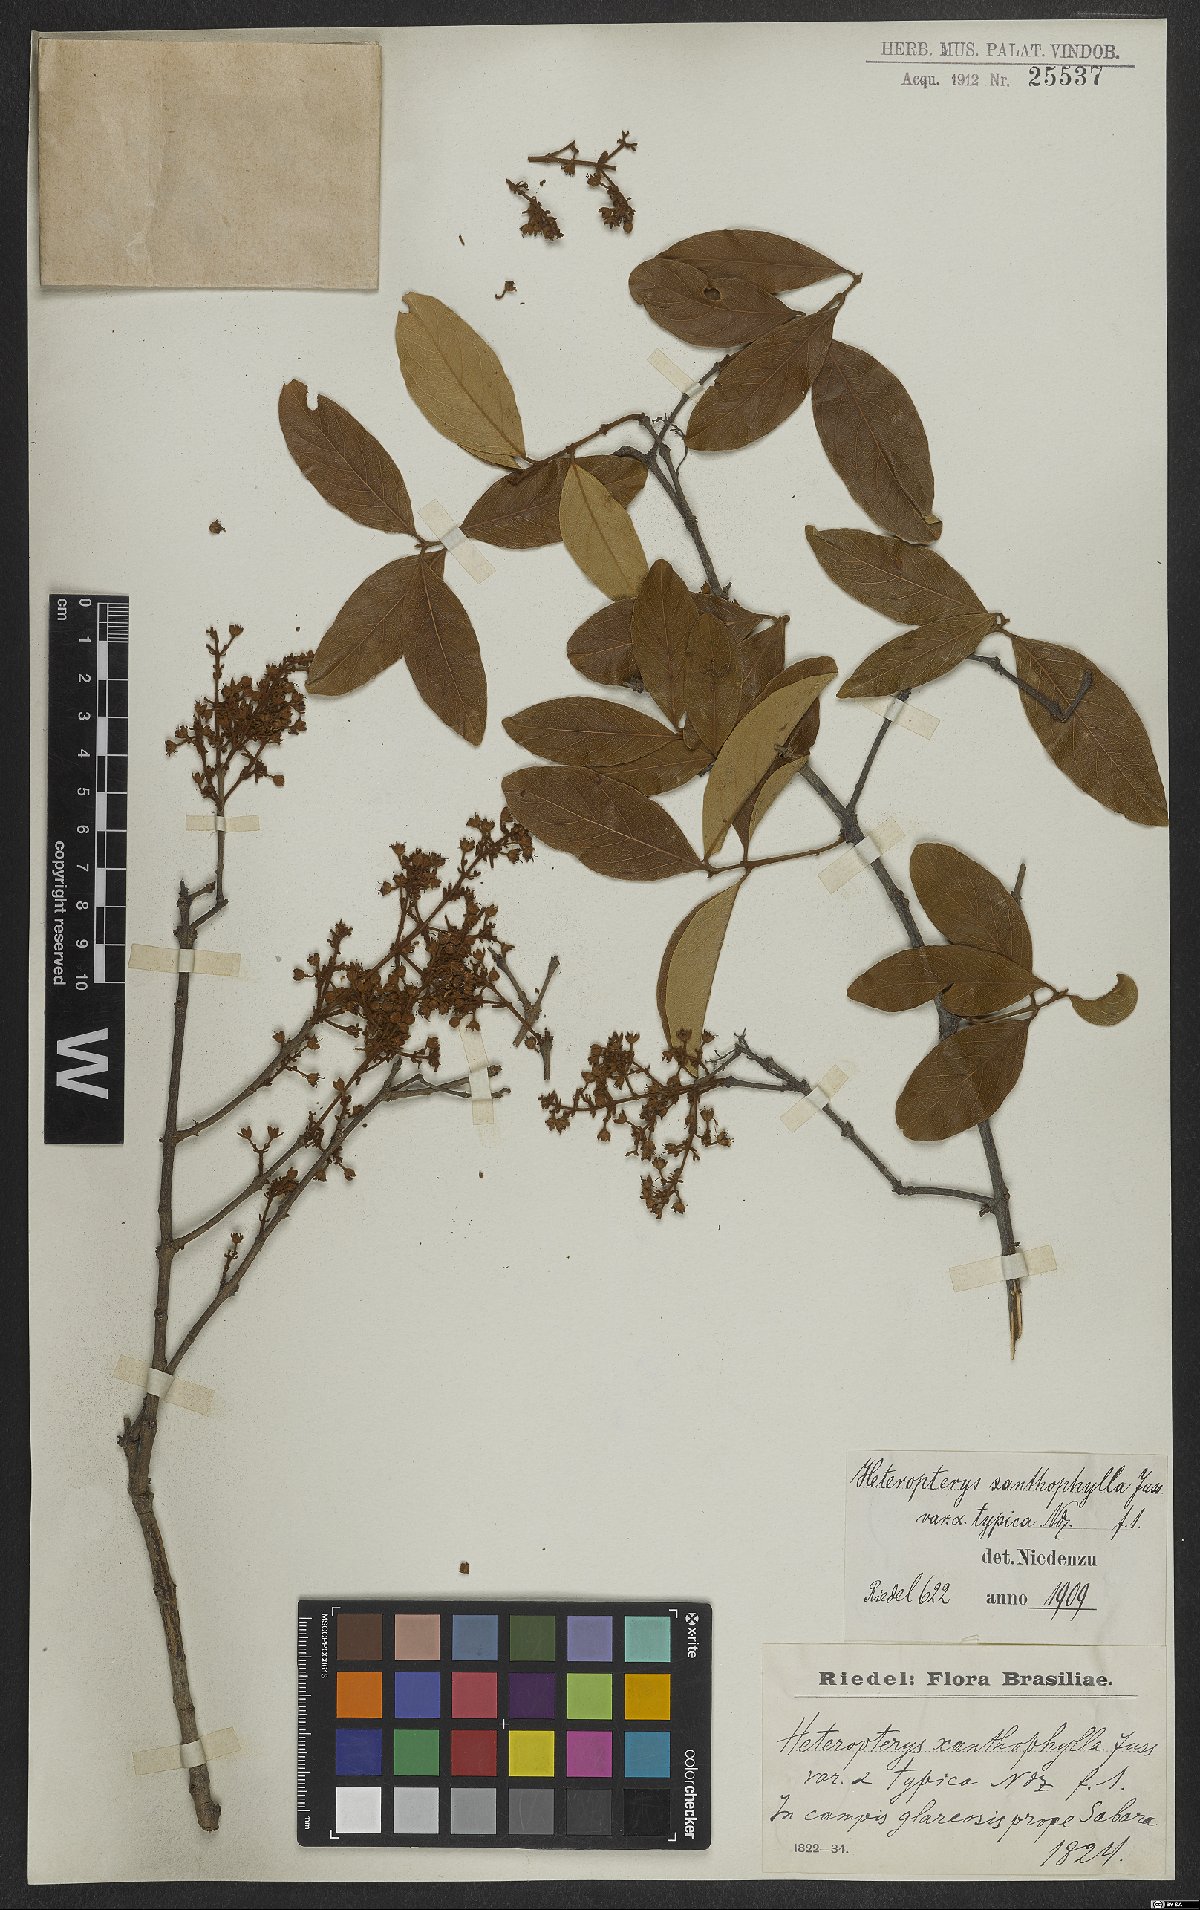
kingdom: Plantae
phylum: Tracheophyta
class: Magnoliopsida
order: Malpighiales
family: Malpighiaceae
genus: Heteropterys
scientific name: Heteropterys xanthophylla
